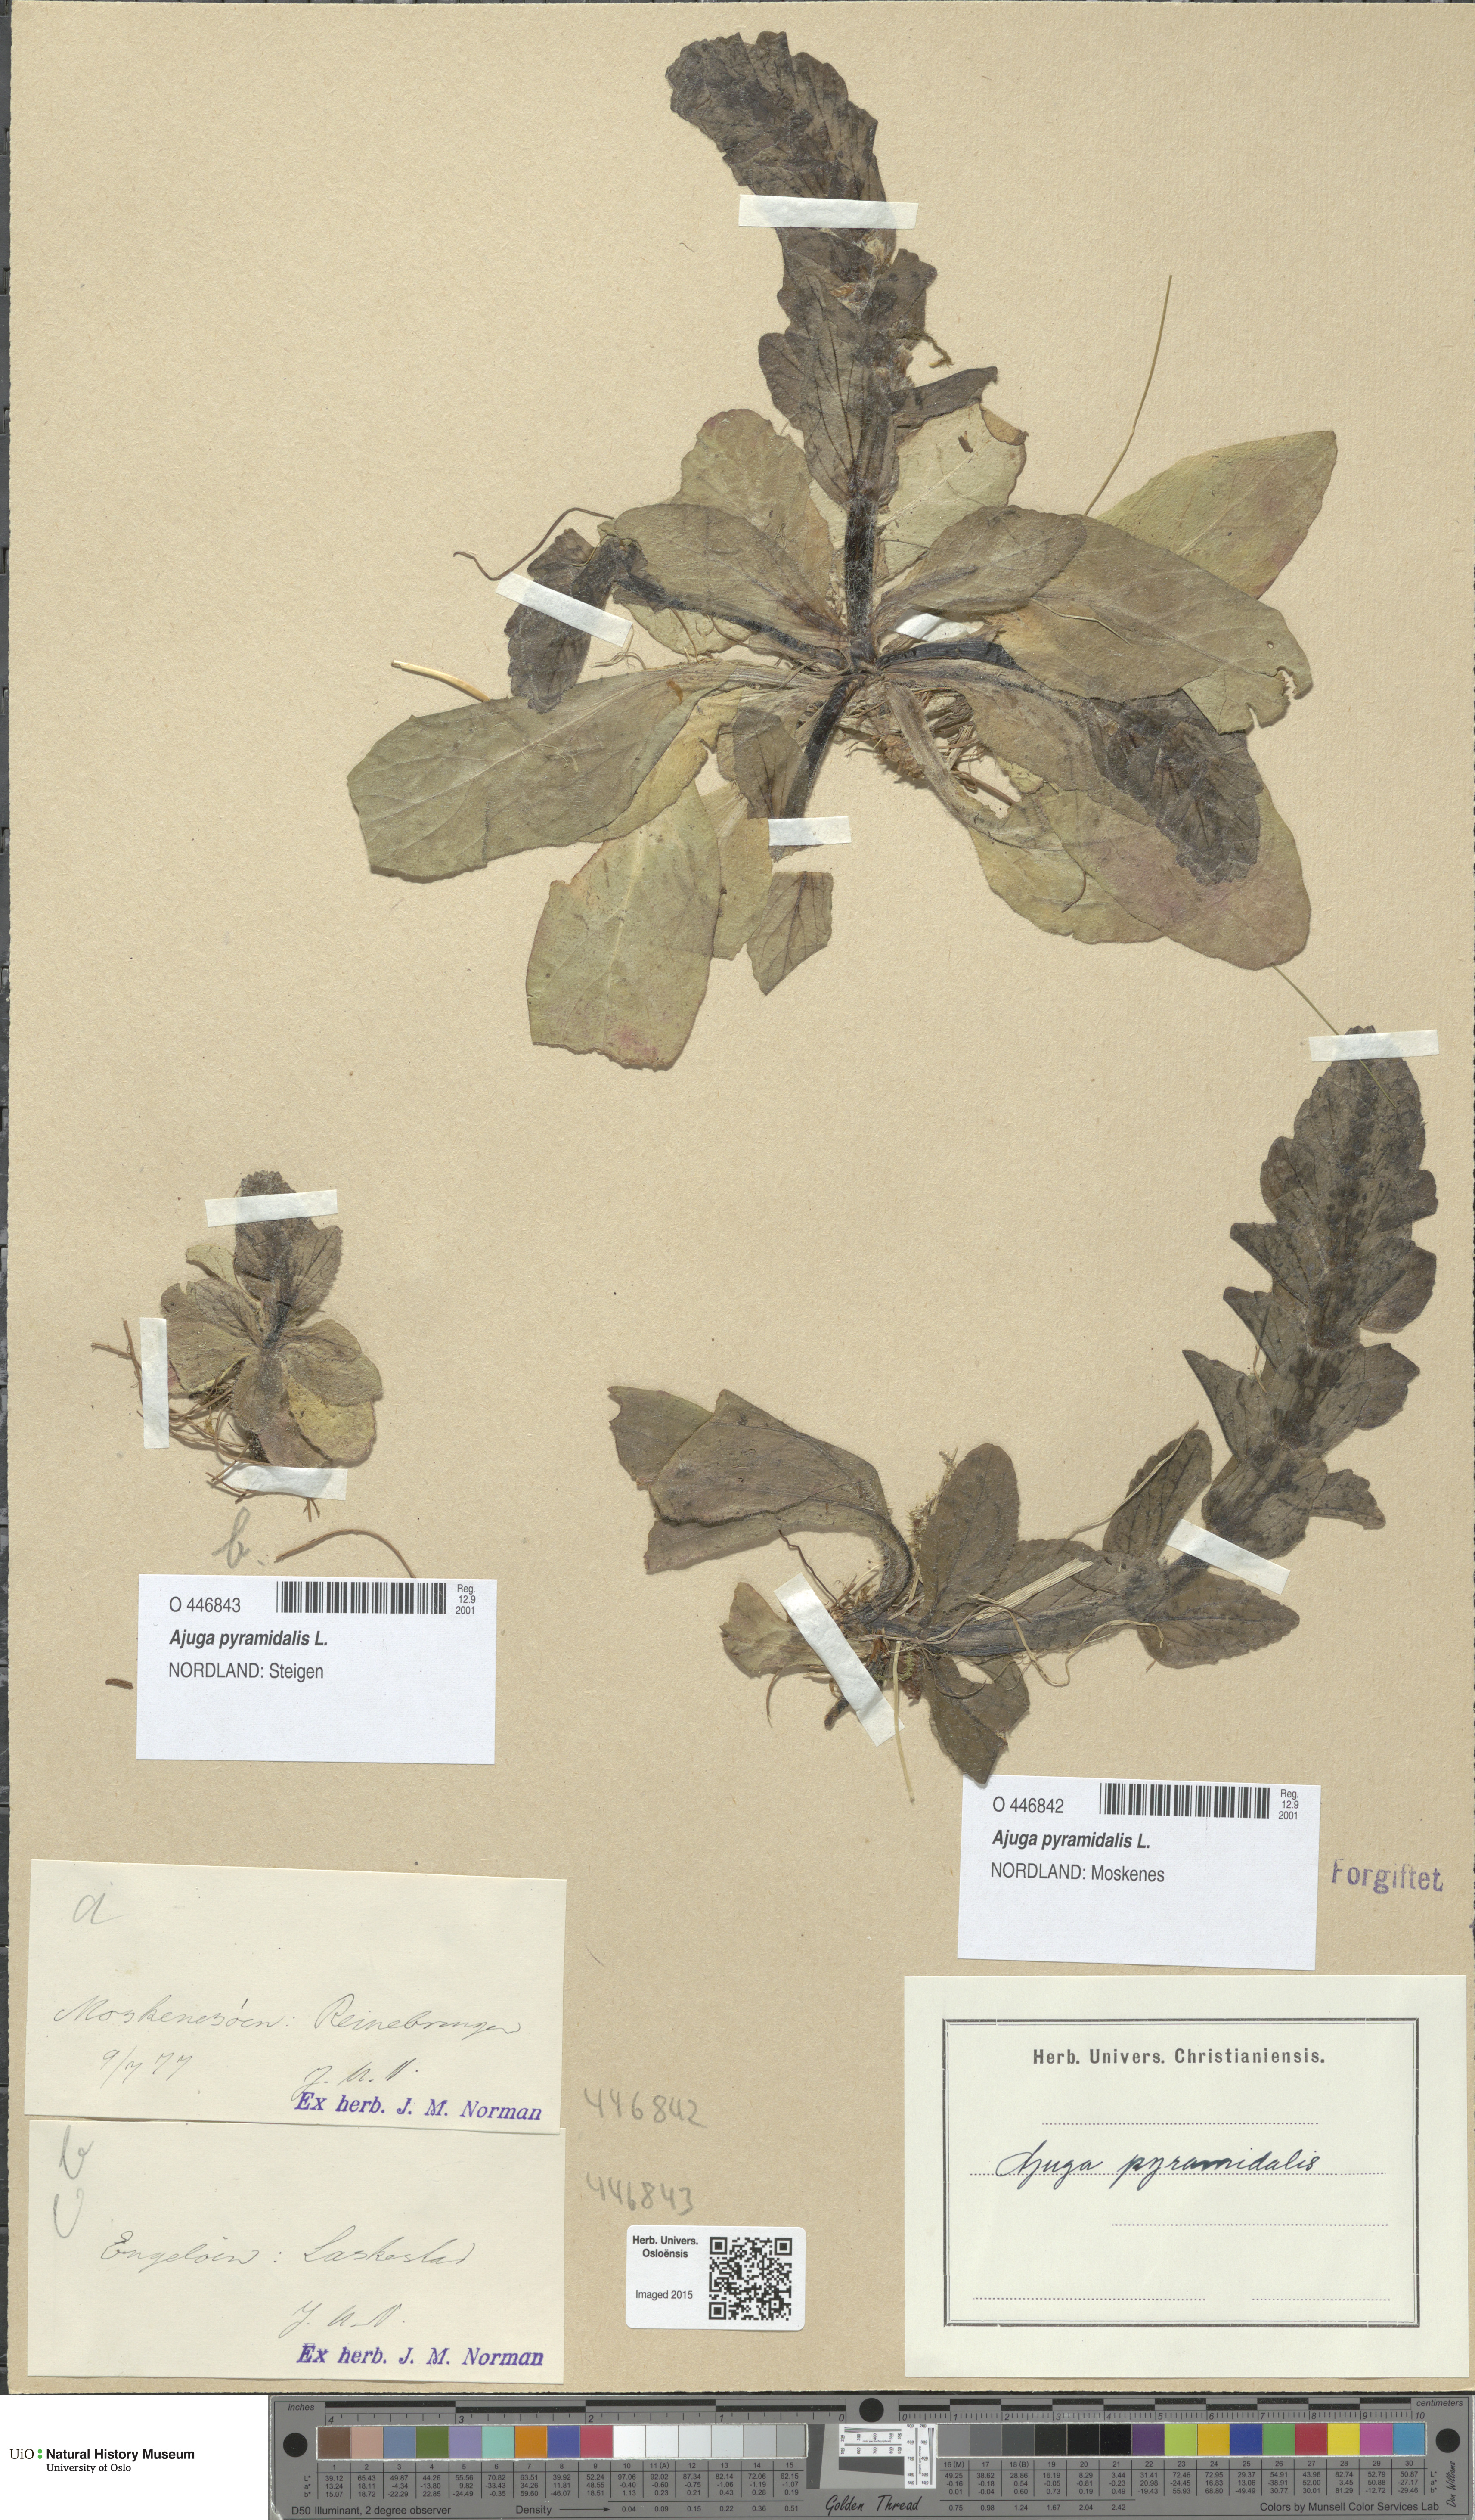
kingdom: Plantae
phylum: Tracheophyta
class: Magnoliopsida
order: Lamiales
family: Lamiaceae
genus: Ajuga
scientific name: Ajuga pyramidalis
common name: Pyramid bugle
